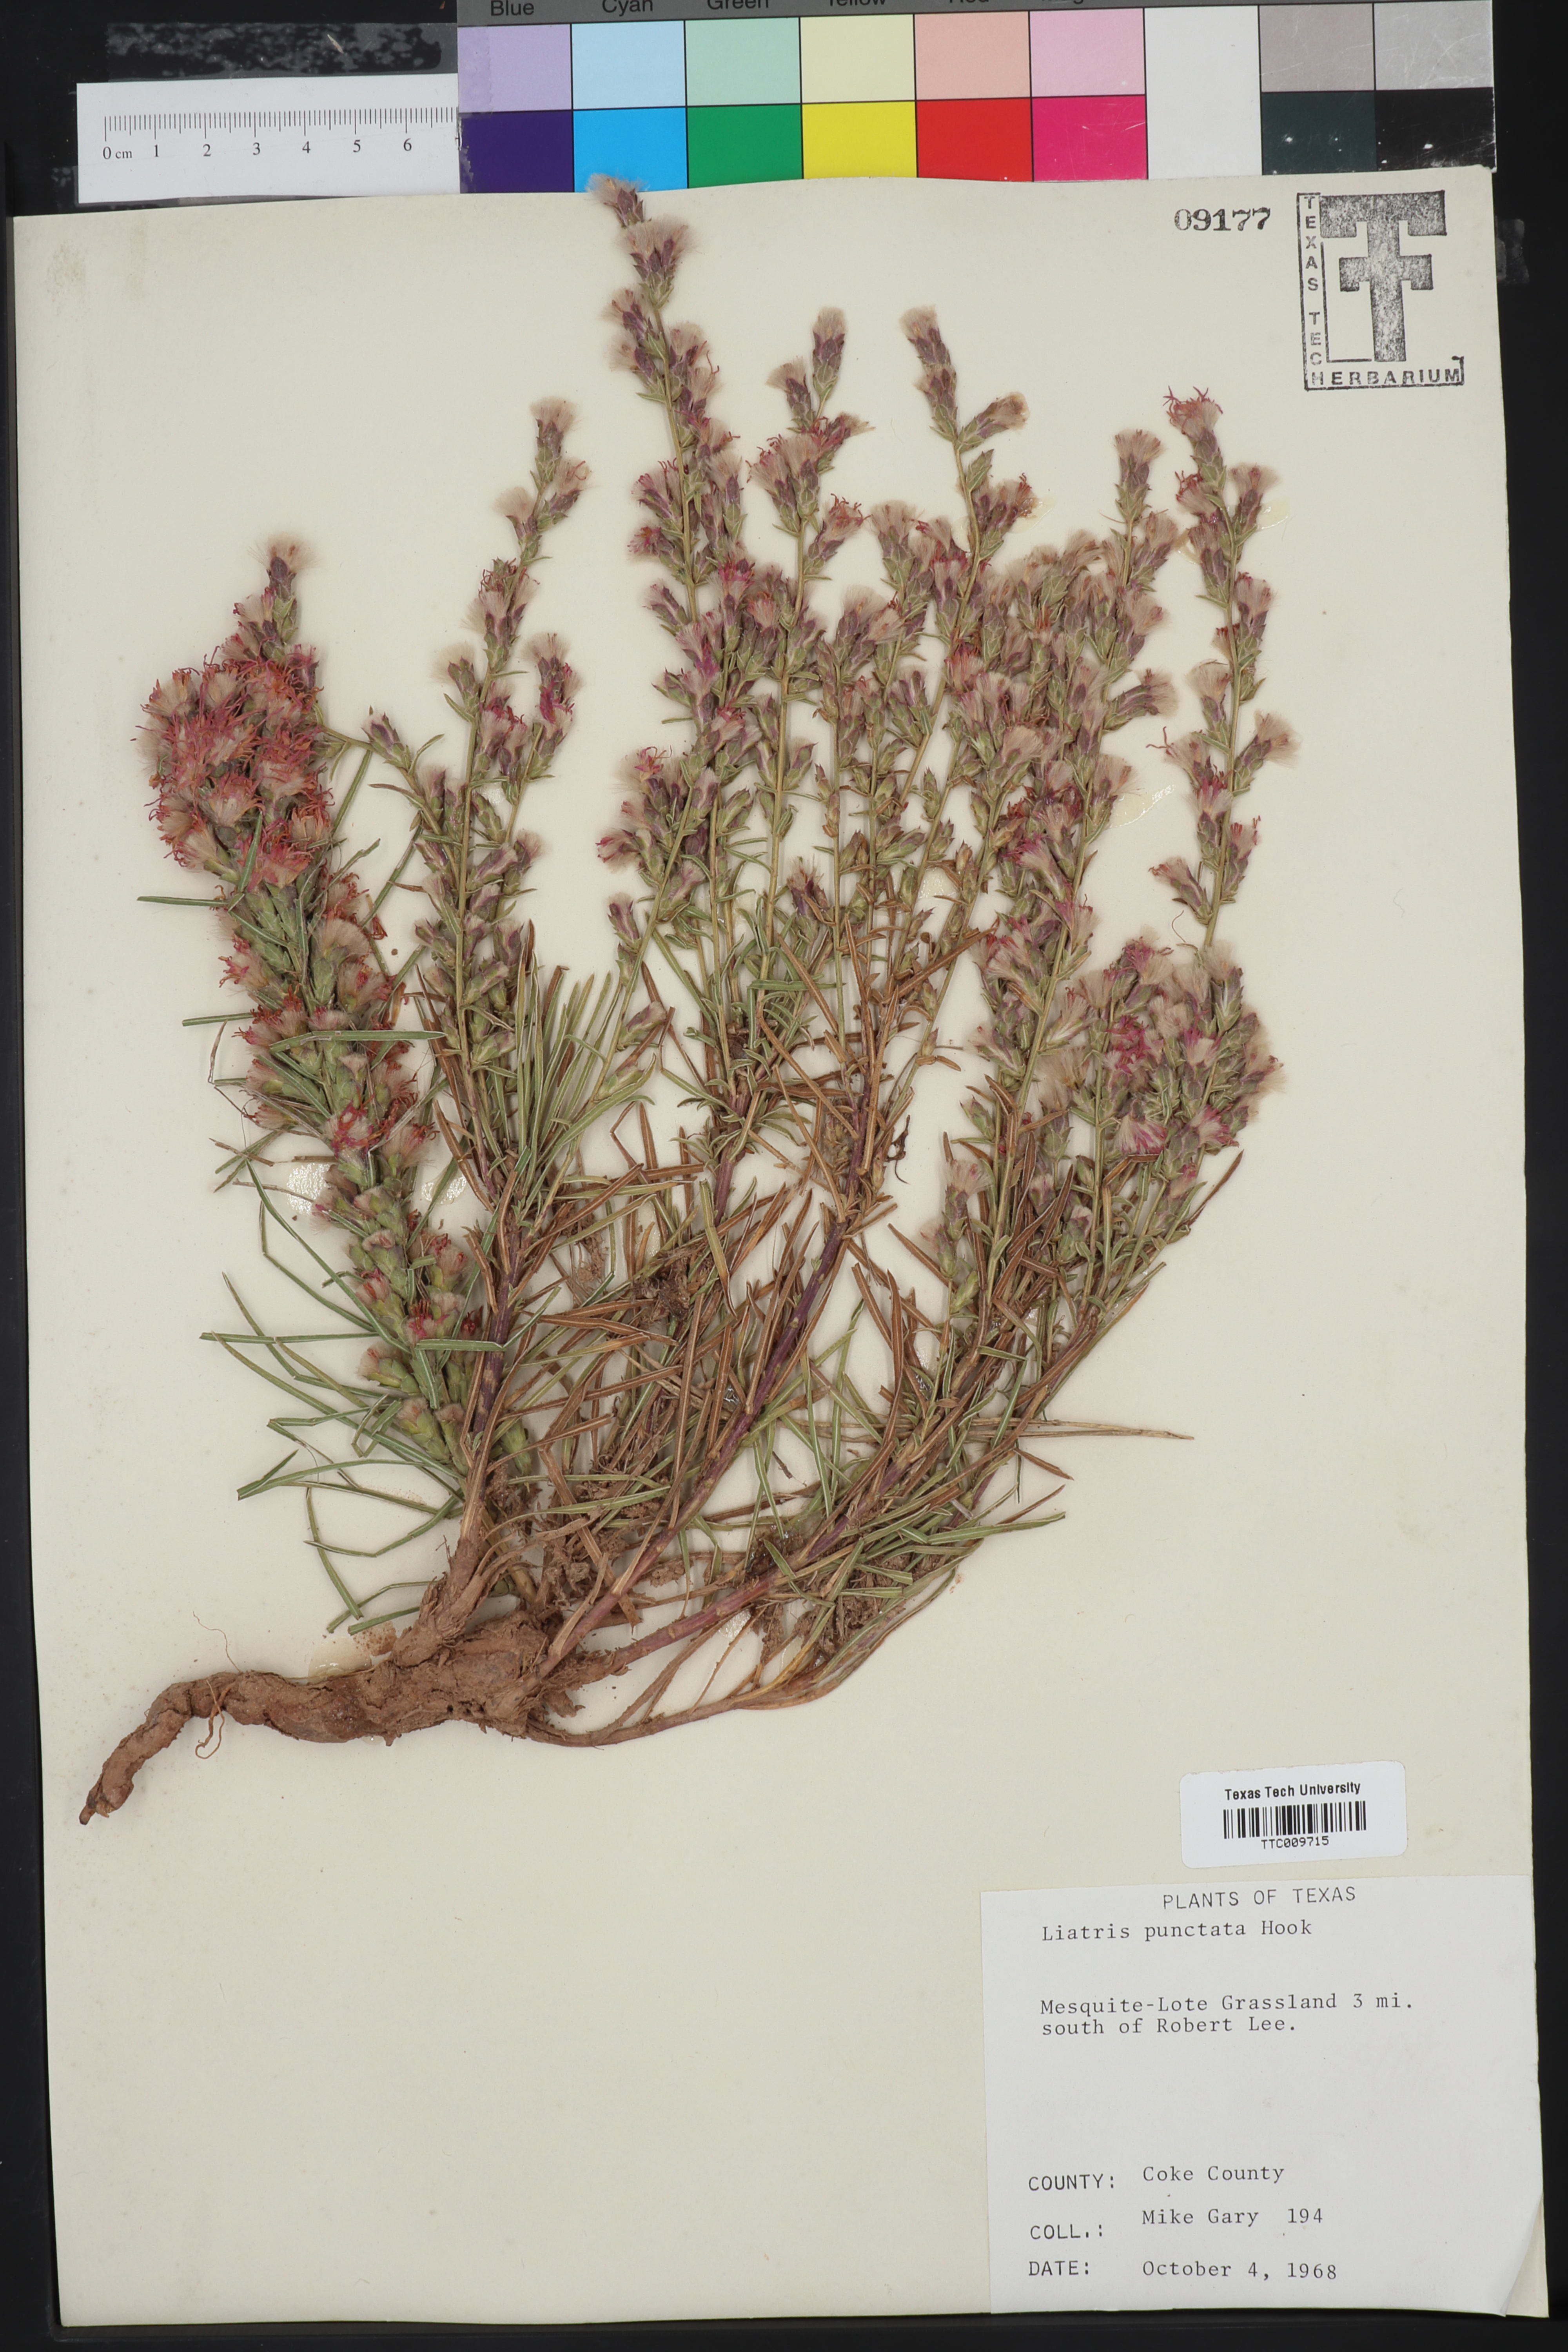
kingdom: Plantae
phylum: Tracheophyta
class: Magnoliopsida
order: Asterales
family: Asteraceae
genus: Liatris
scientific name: Liatris punctata
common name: Dotted gayfeather
